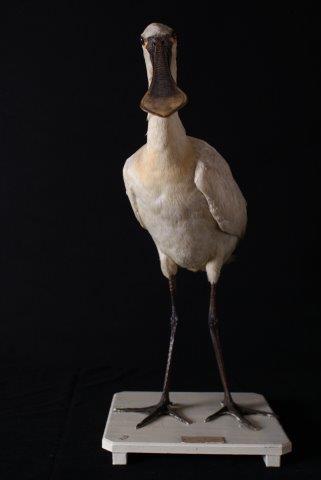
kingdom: Animalia
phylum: Chordata
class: Aves
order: Pelecaniformes
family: Threskiornithidae
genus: Platalea
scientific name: Platalea leucorodia
